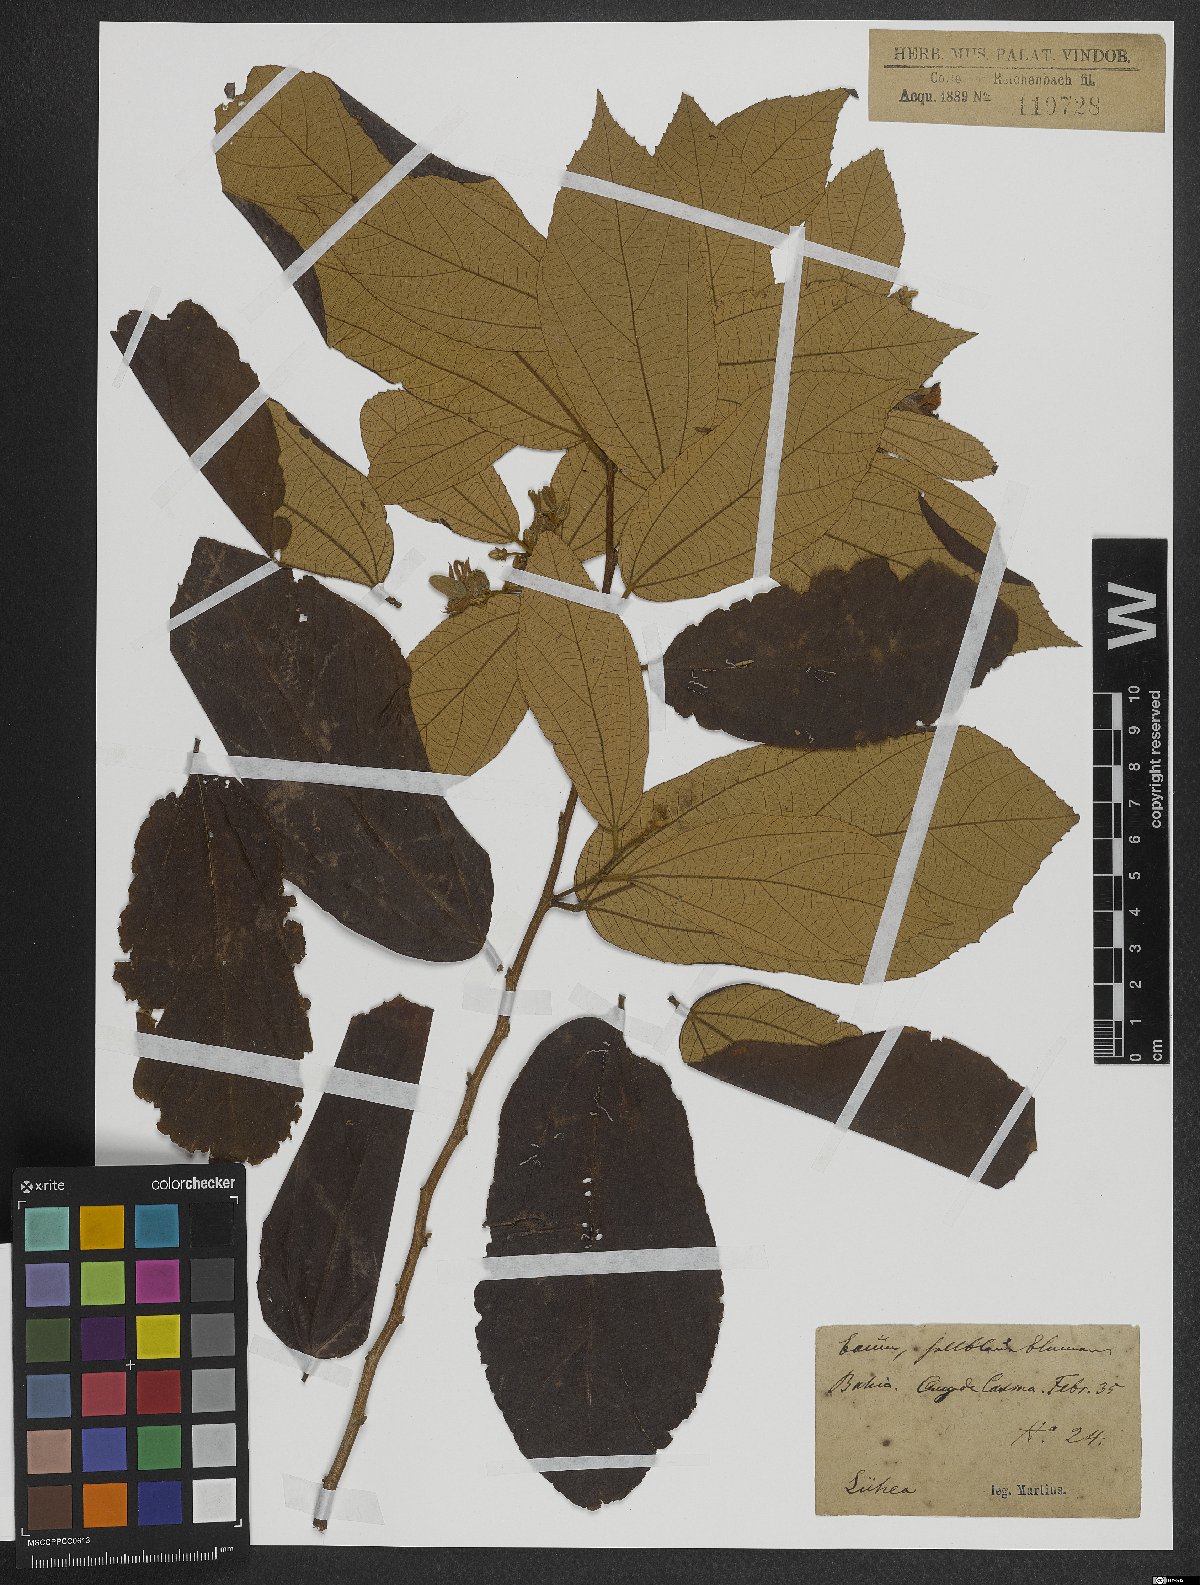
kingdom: Plantae
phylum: Tracheophyta
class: Magnoliopsida
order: Malvales
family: Malvaceae
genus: Luehea
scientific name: Luehea
